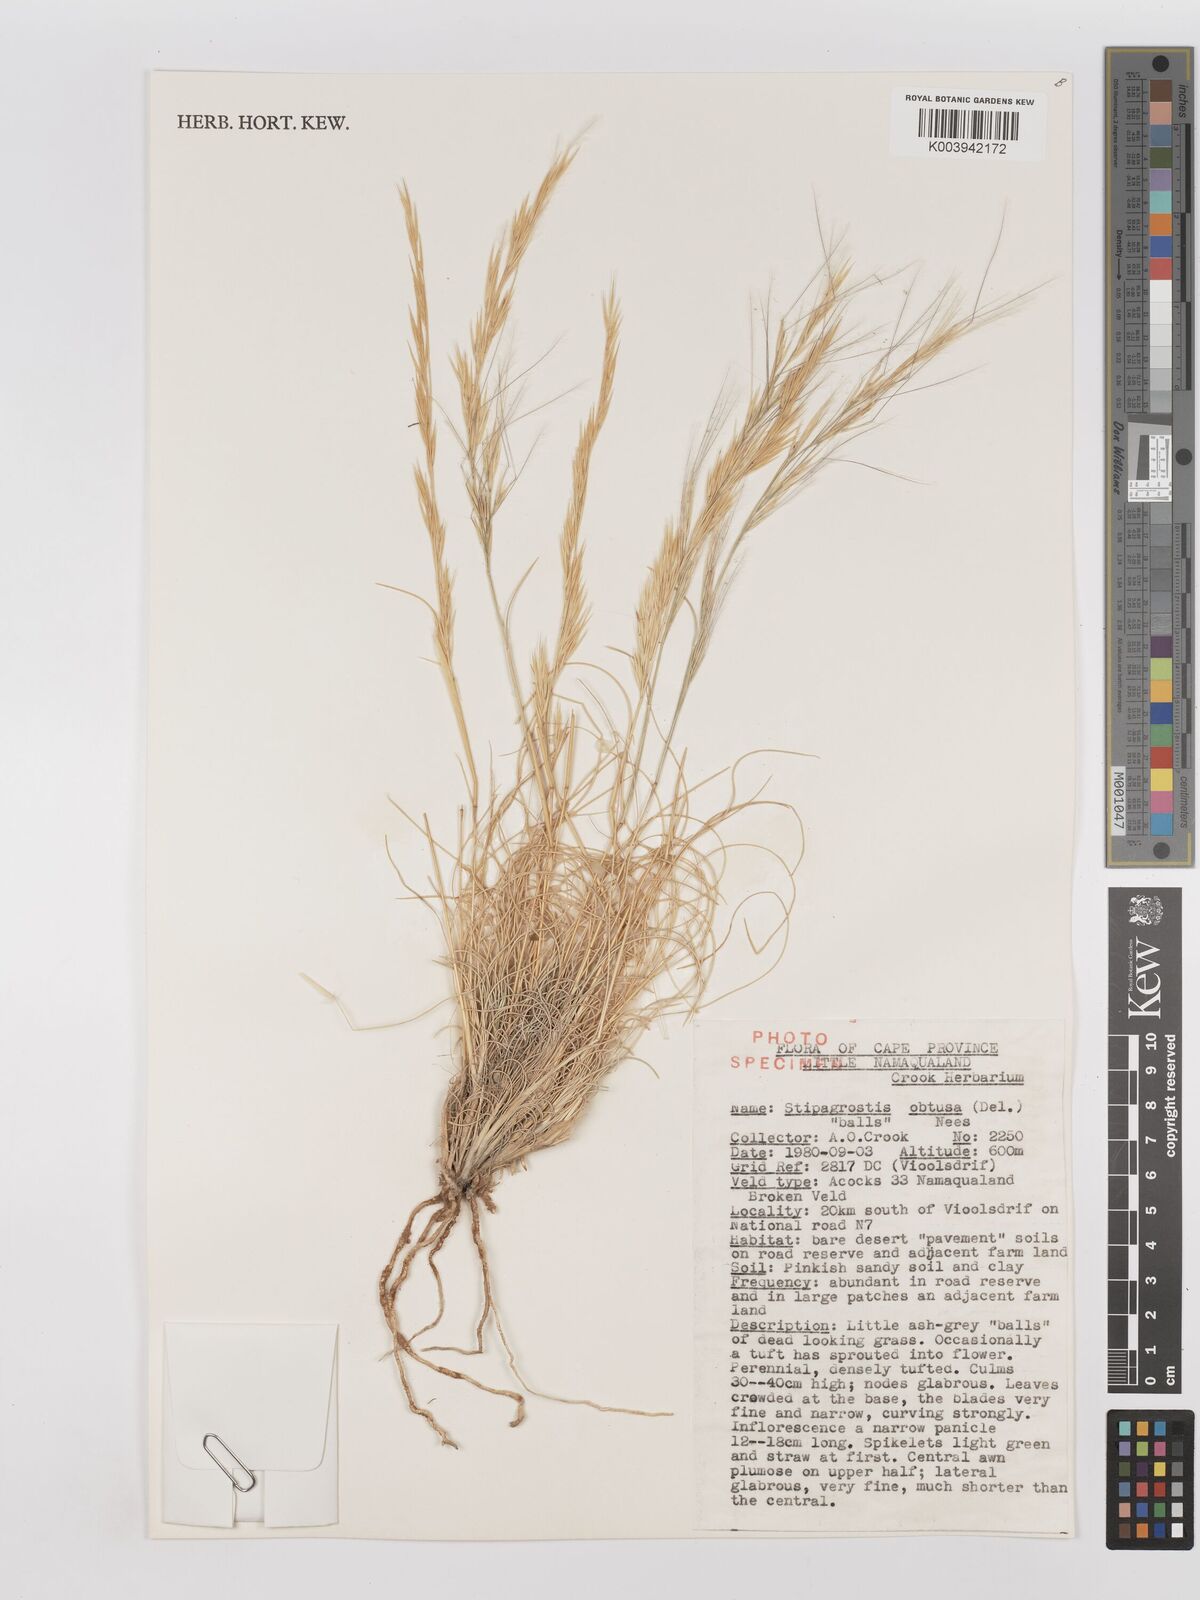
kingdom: Plantae
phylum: Tracheophyta
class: Liliopsida
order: Poales
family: Poaceae
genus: Stipagrostis
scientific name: Stipagrostis obtusa
